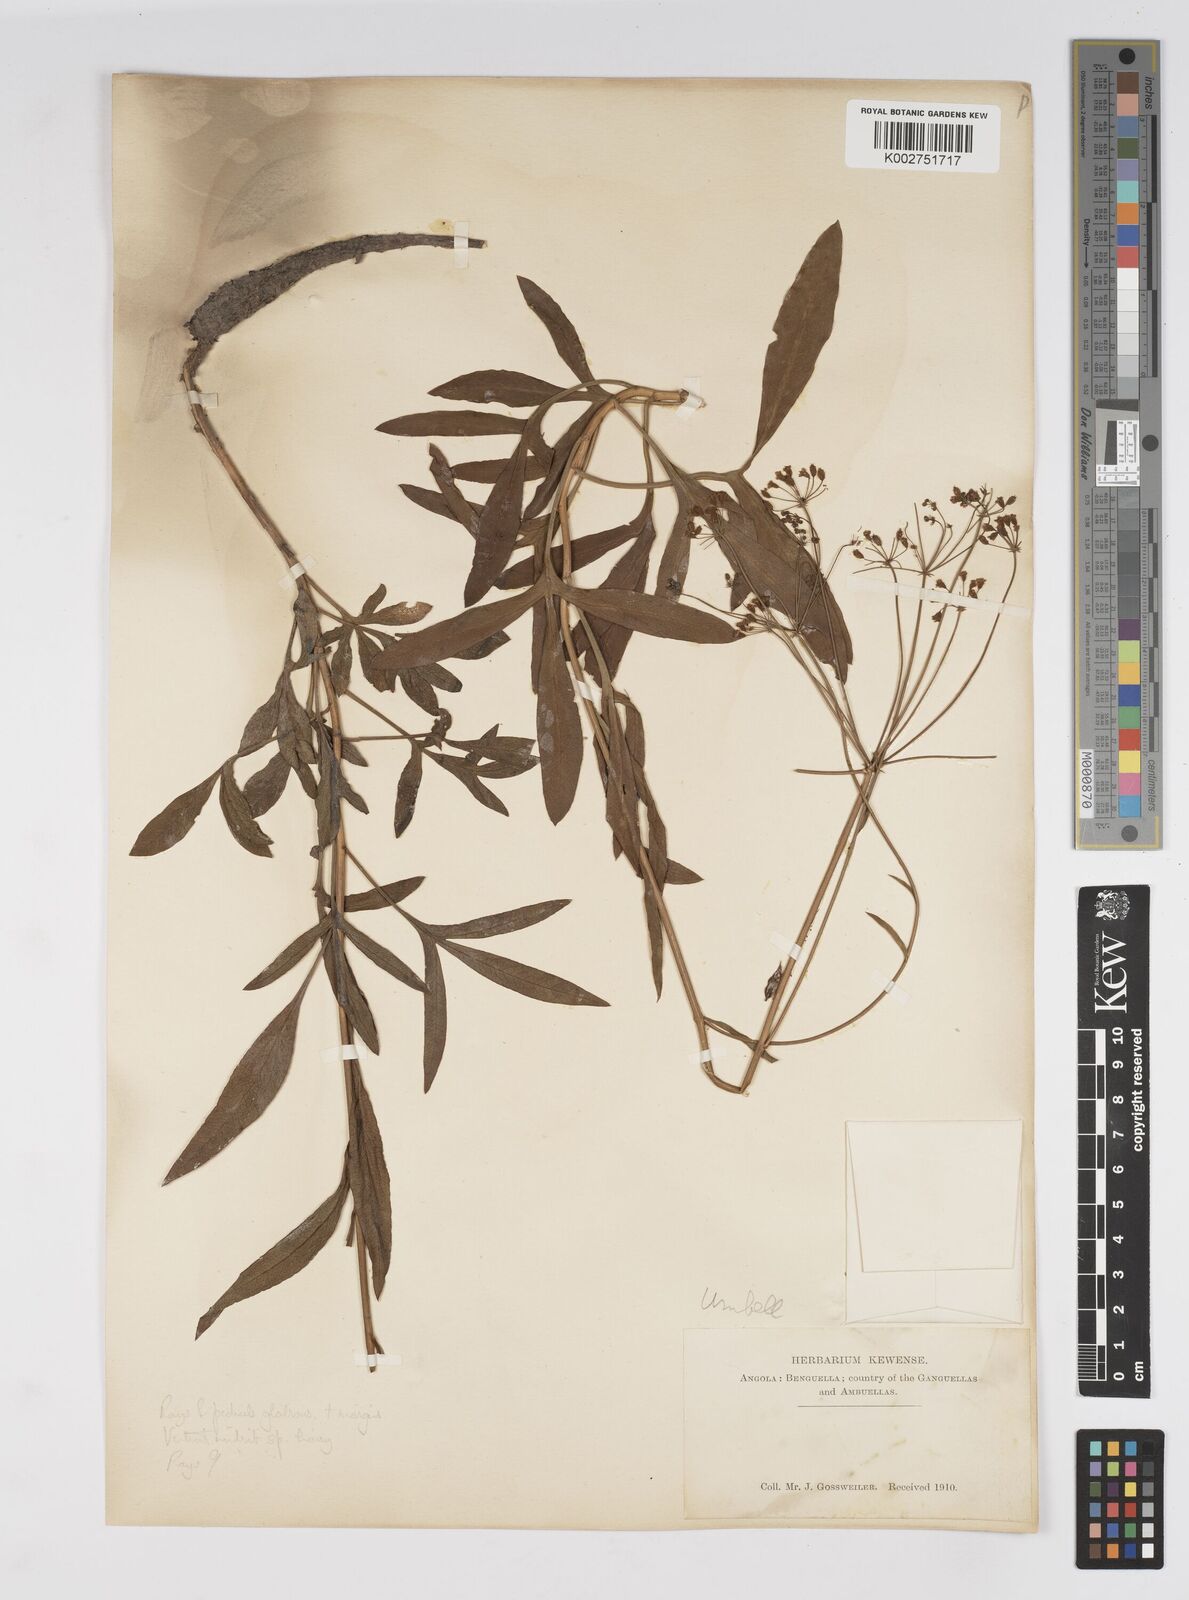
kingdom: Plantae
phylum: Tracheophyta
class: Magnoliopsida
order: Apiales
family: Apiaceae
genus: Heteromorpha
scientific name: Heteromorpha gossweileri
